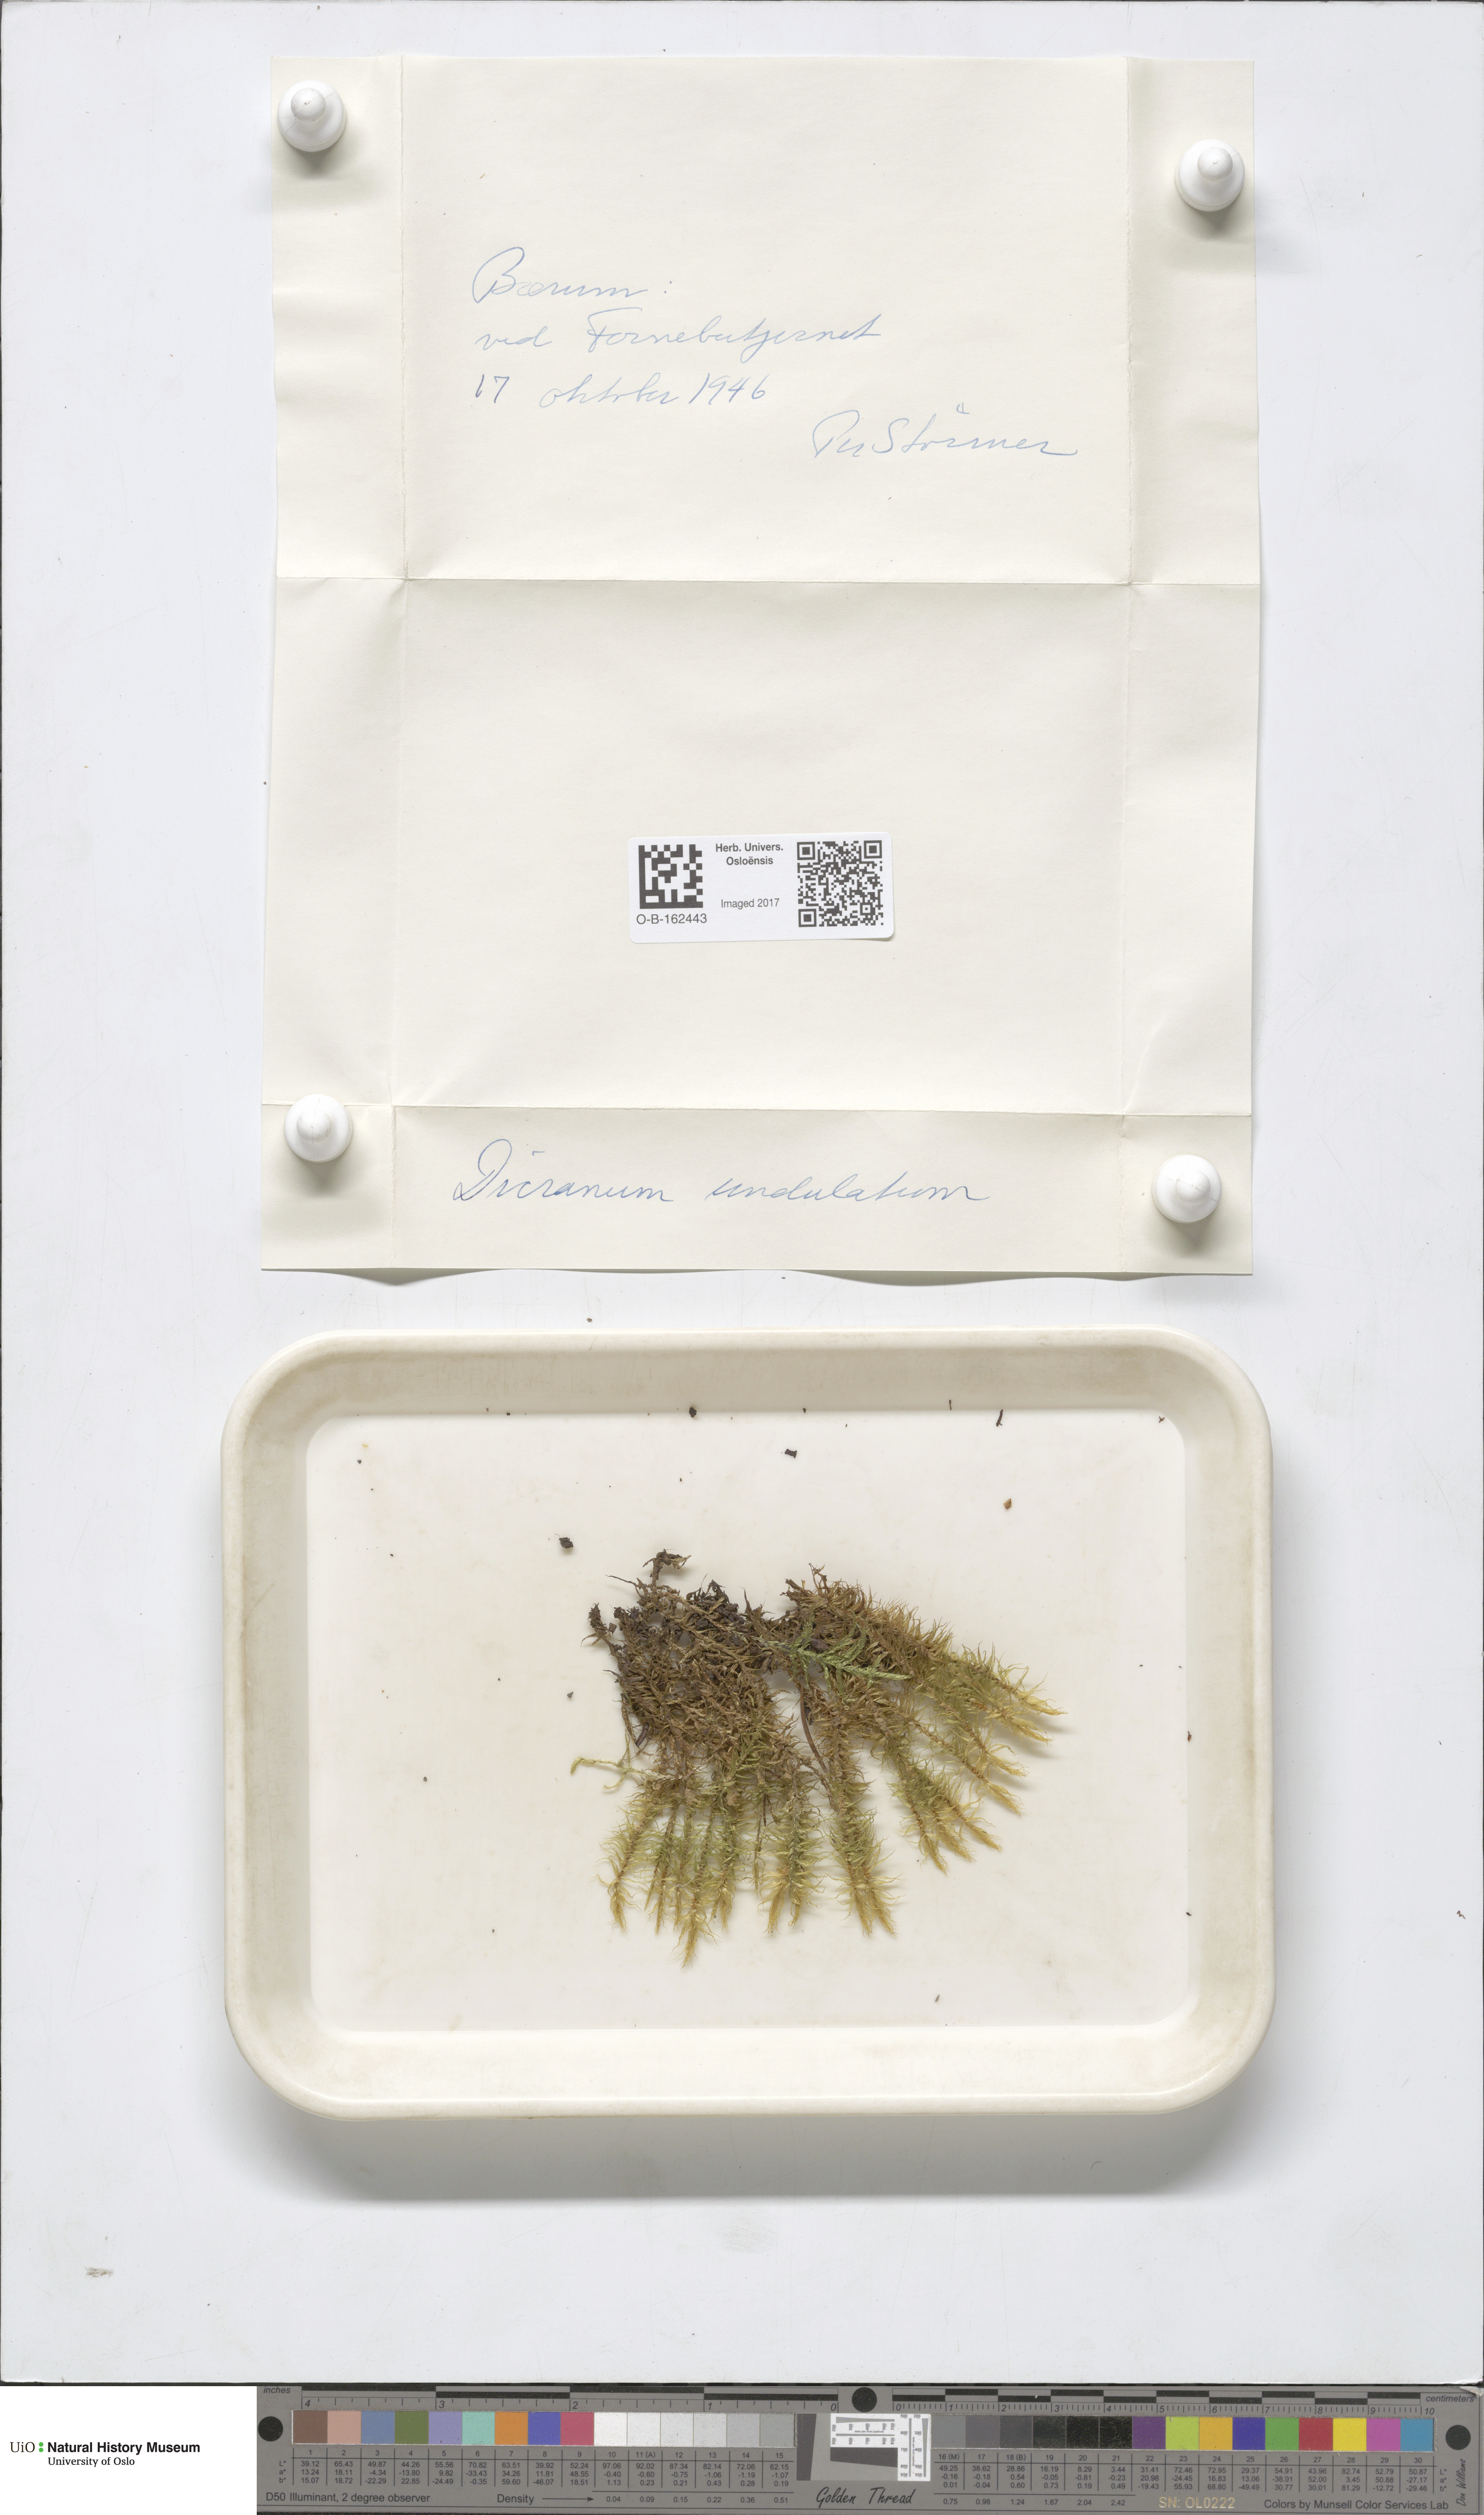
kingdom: Plantae
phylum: Bryophyta
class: Bryopsida
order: Dicranales
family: Dicranaceae
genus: Dicranum
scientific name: Dicranum polysetum
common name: Rugose fork-moss
